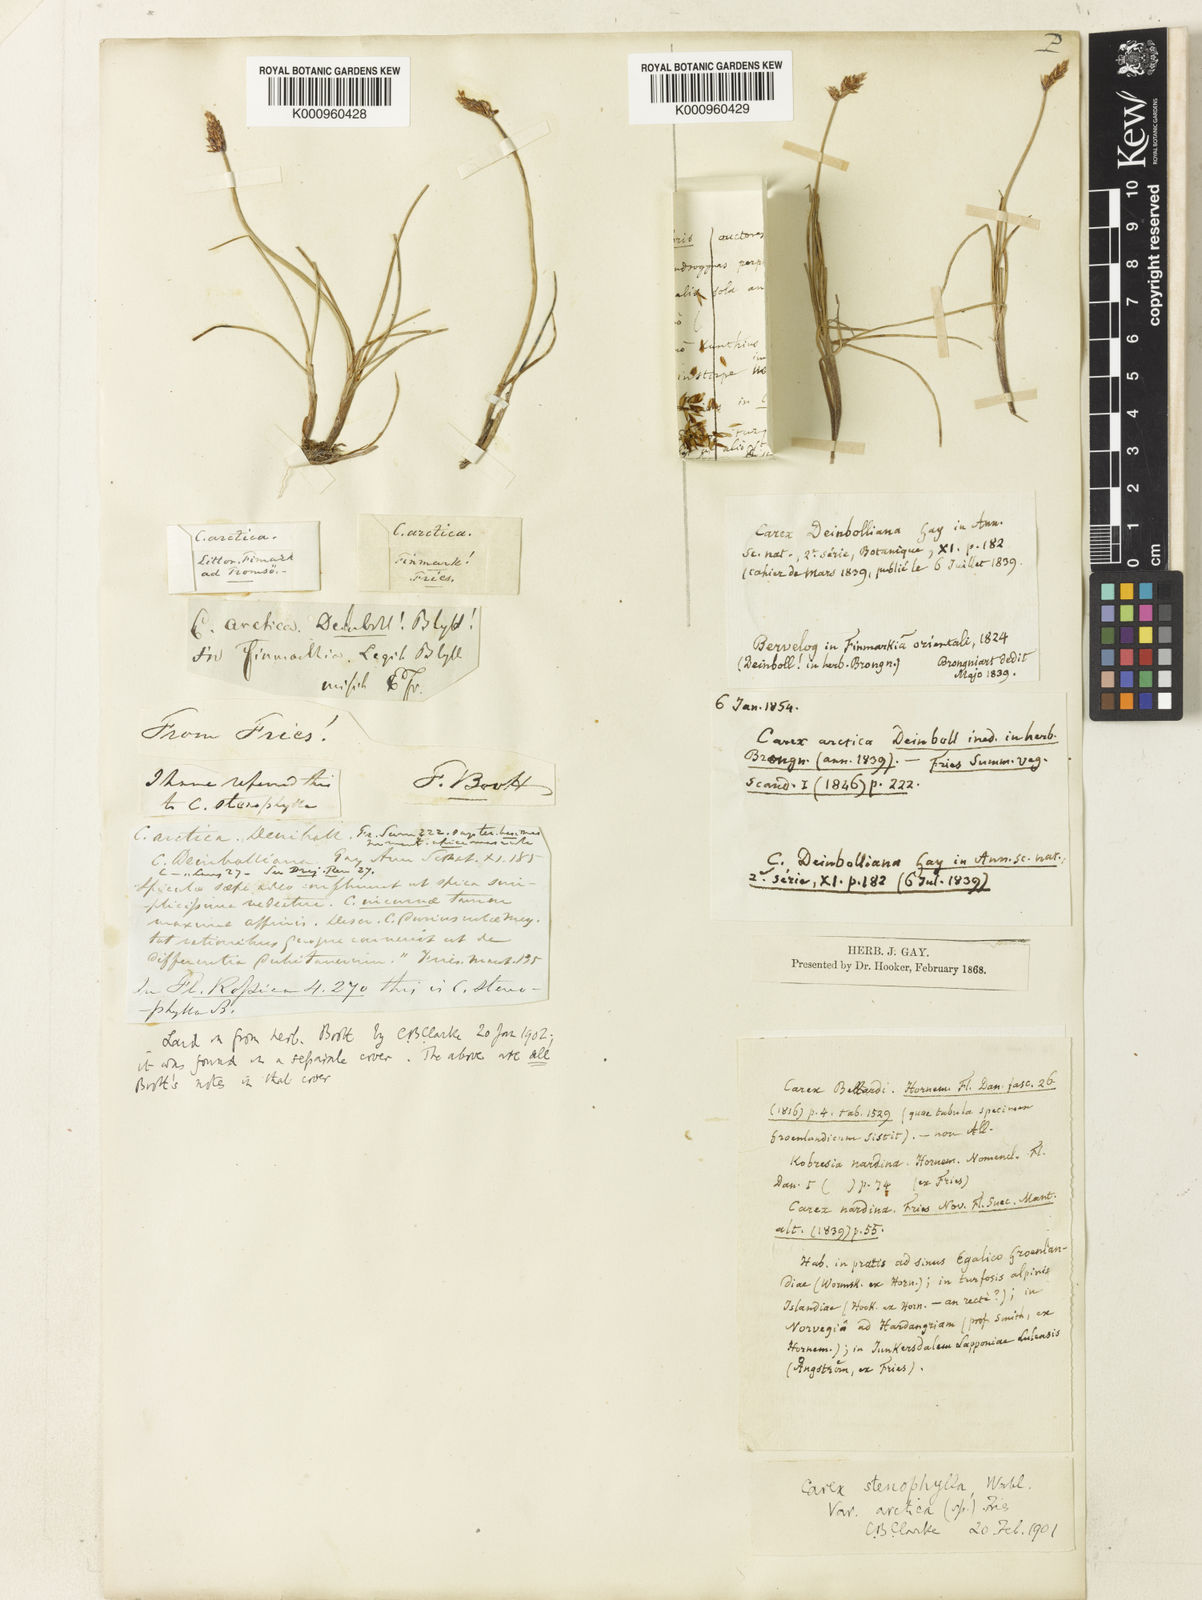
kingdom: Plantae
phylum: Tracheophyta
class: Liliopsida
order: Poales
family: Cyperaceae
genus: Carex
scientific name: Carex dioica
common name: Dioecious sedge
